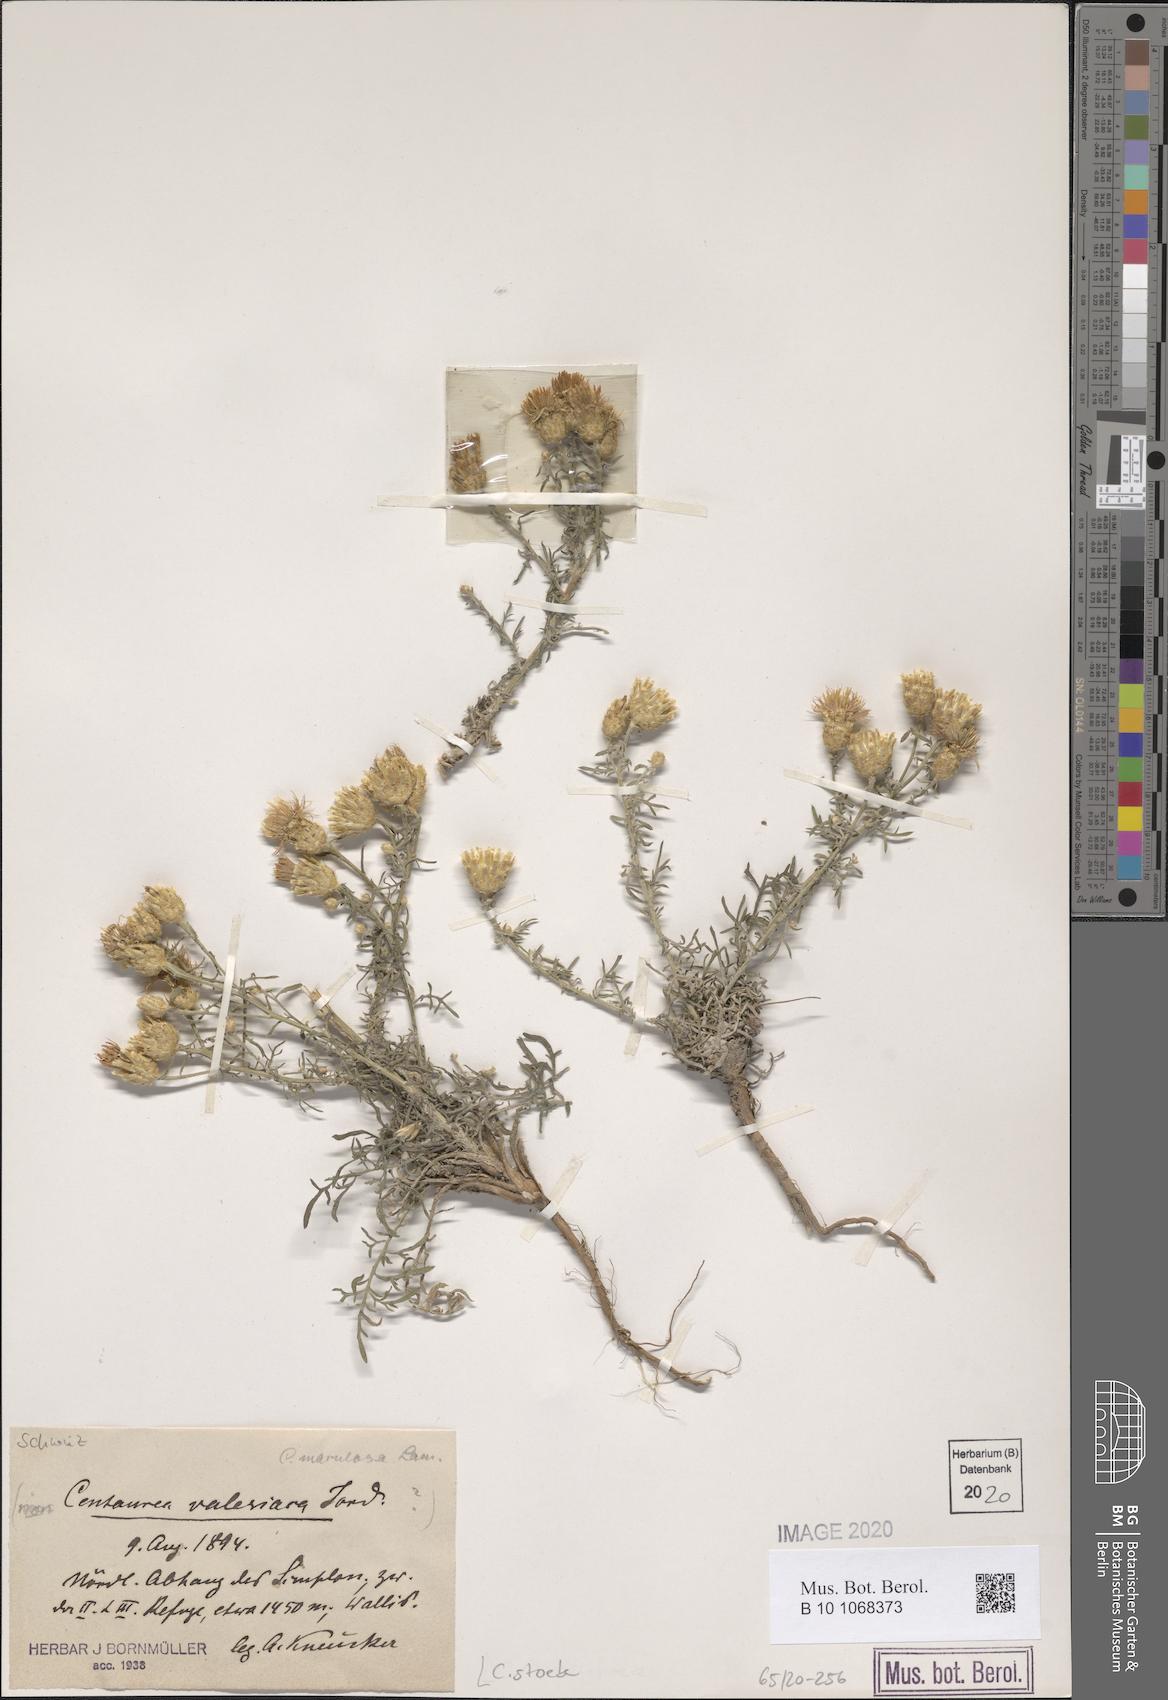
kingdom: Plantae
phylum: Tracheophyta
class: Magnoliopsida
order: Asterales
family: Asteraceae
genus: Centaurea
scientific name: Centaurea stoebe
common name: Spotted knapweed
